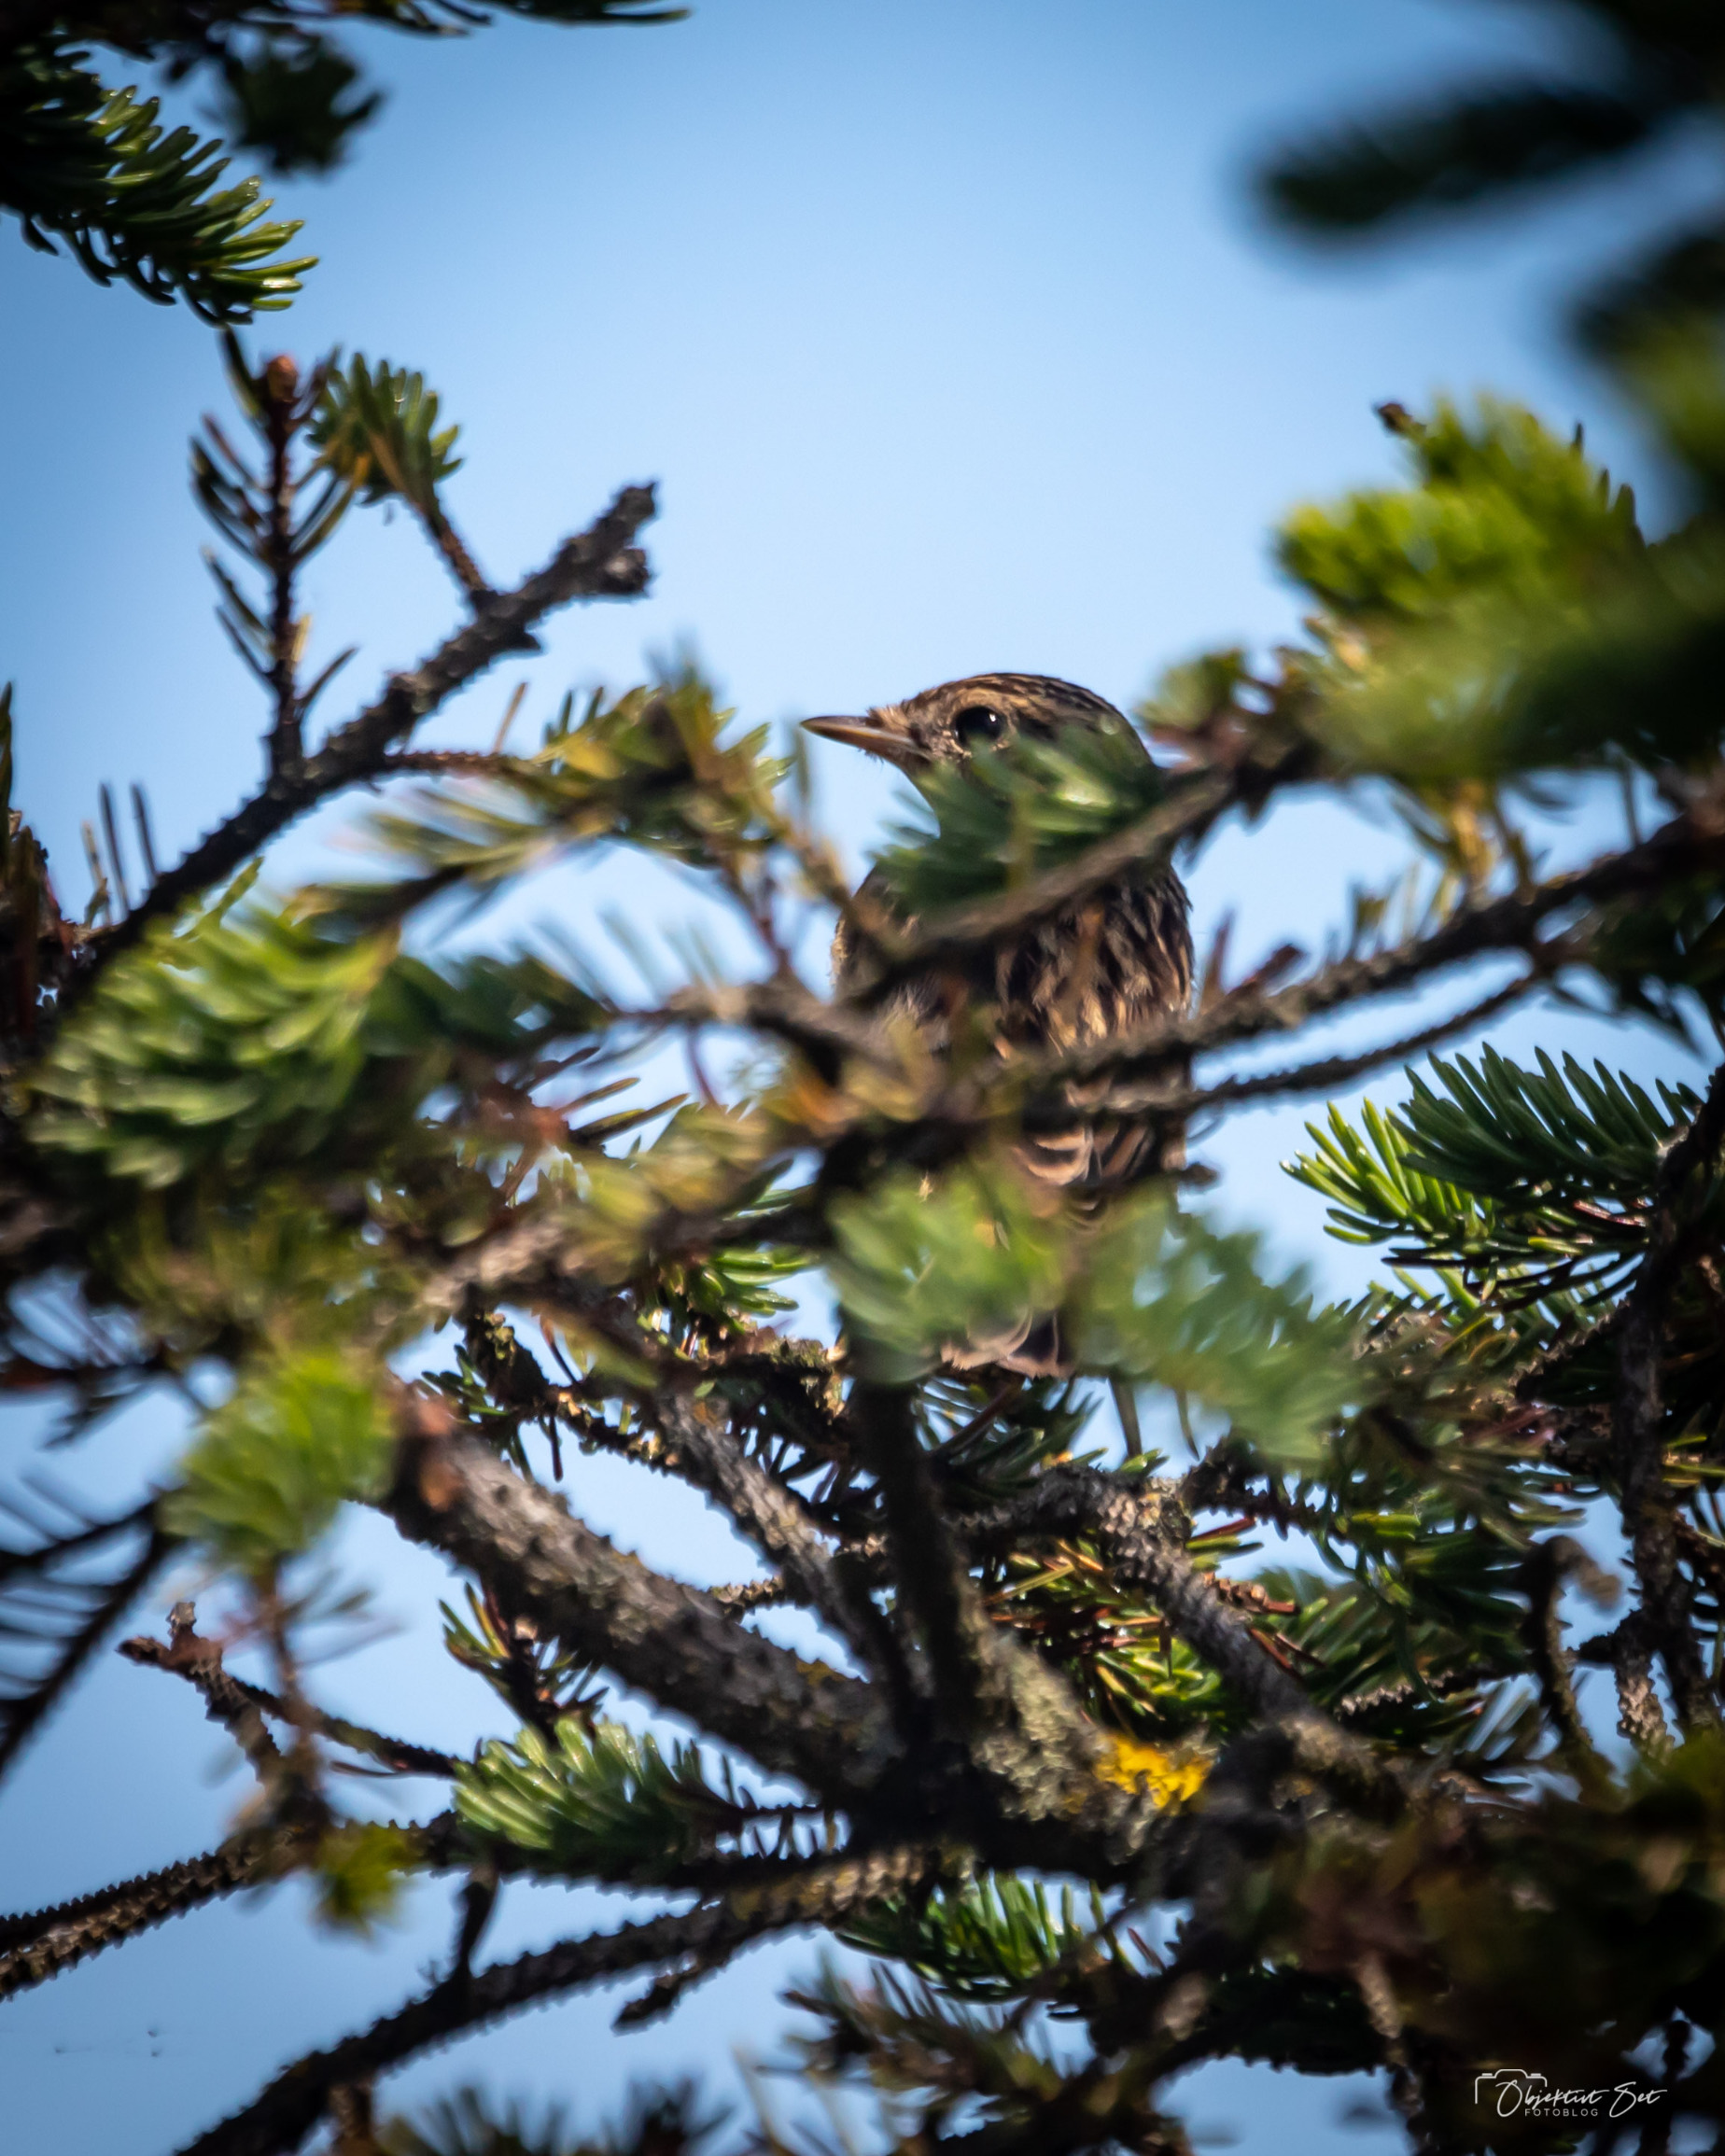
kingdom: Animalia
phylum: Chordata
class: Aves
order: Passeriformes
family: Motacillidae
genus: Anthus
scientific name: Anthus trivialis
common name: Skovpiber
